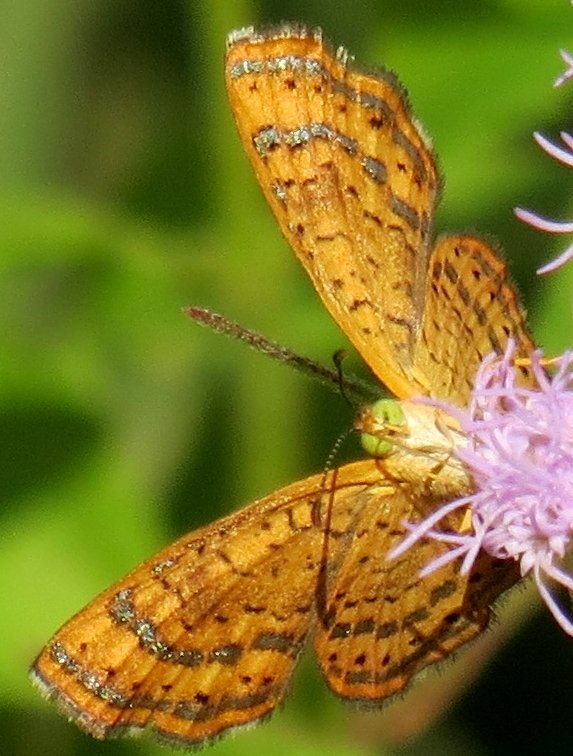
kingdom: Animalia
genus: Calephelis
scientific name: Calephelis nemesis
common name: Fatal Metalmark
